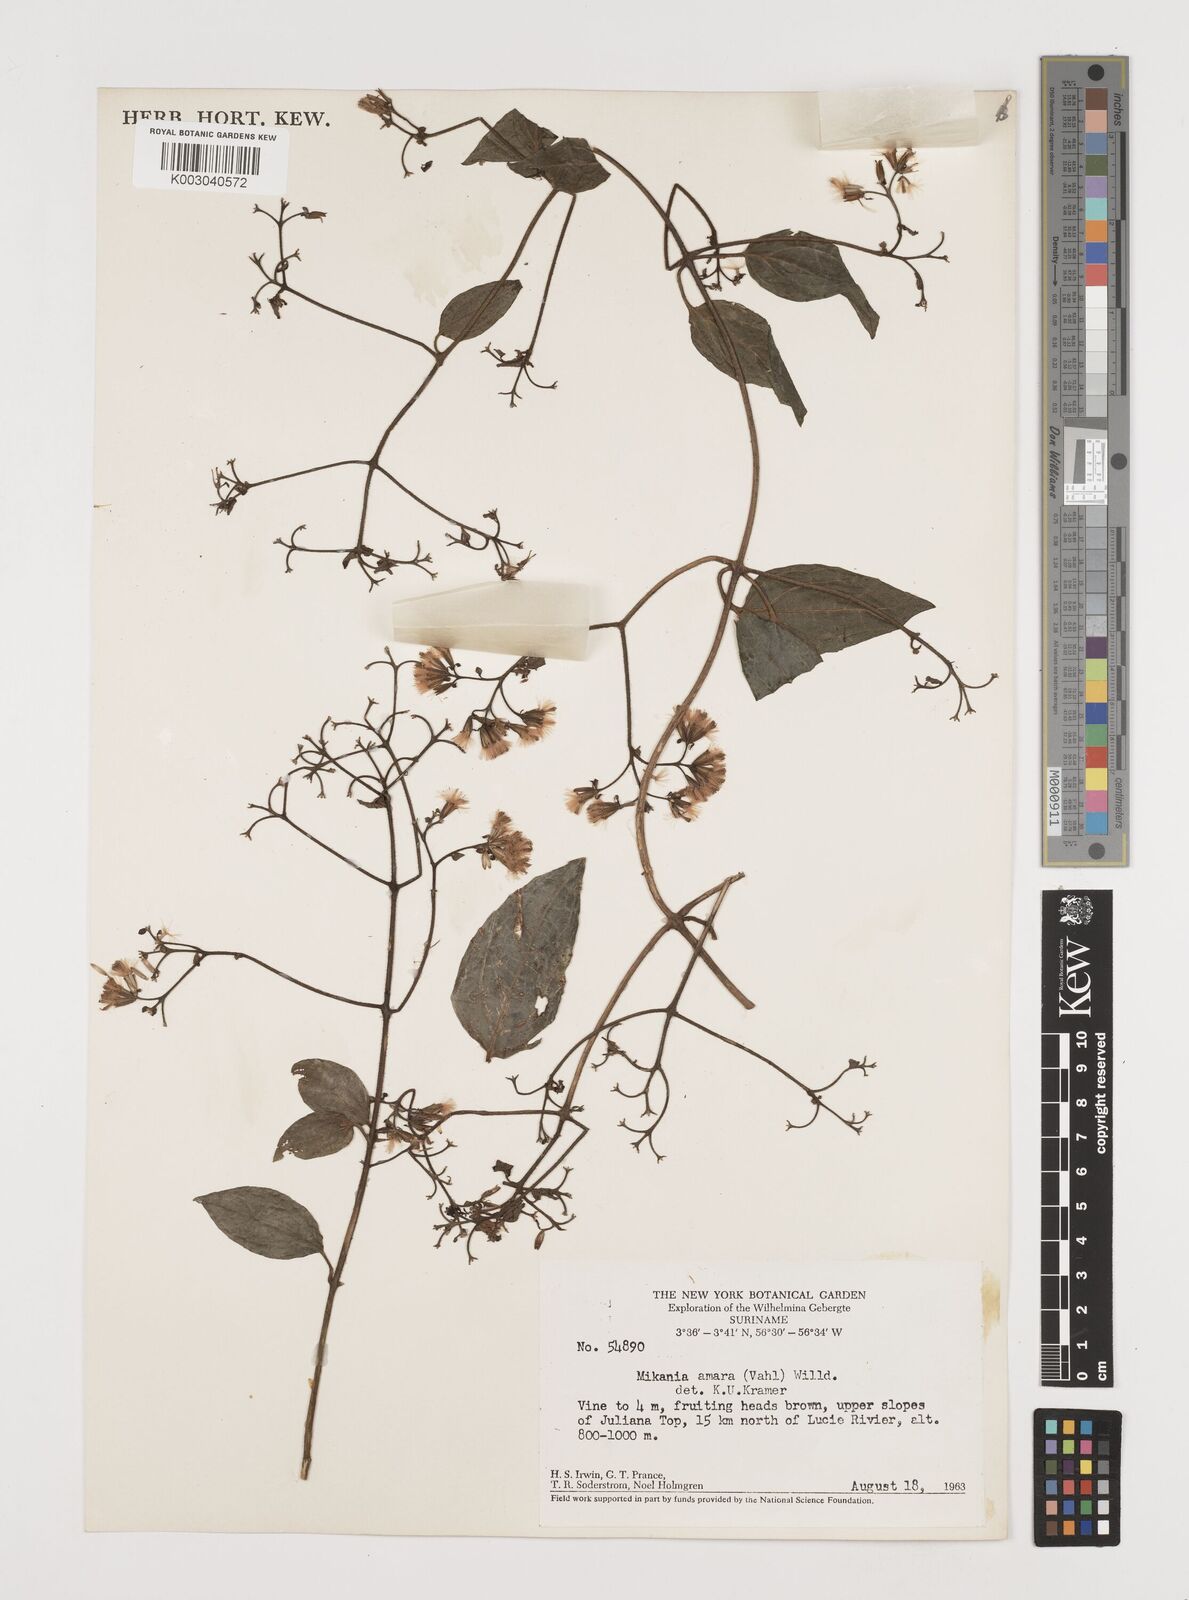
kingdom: Plantae
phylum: Tracheophyta
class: Magnoliopsida
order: Asterales
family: Asteraceae
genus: Mikania
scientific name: Mikania parviflora
